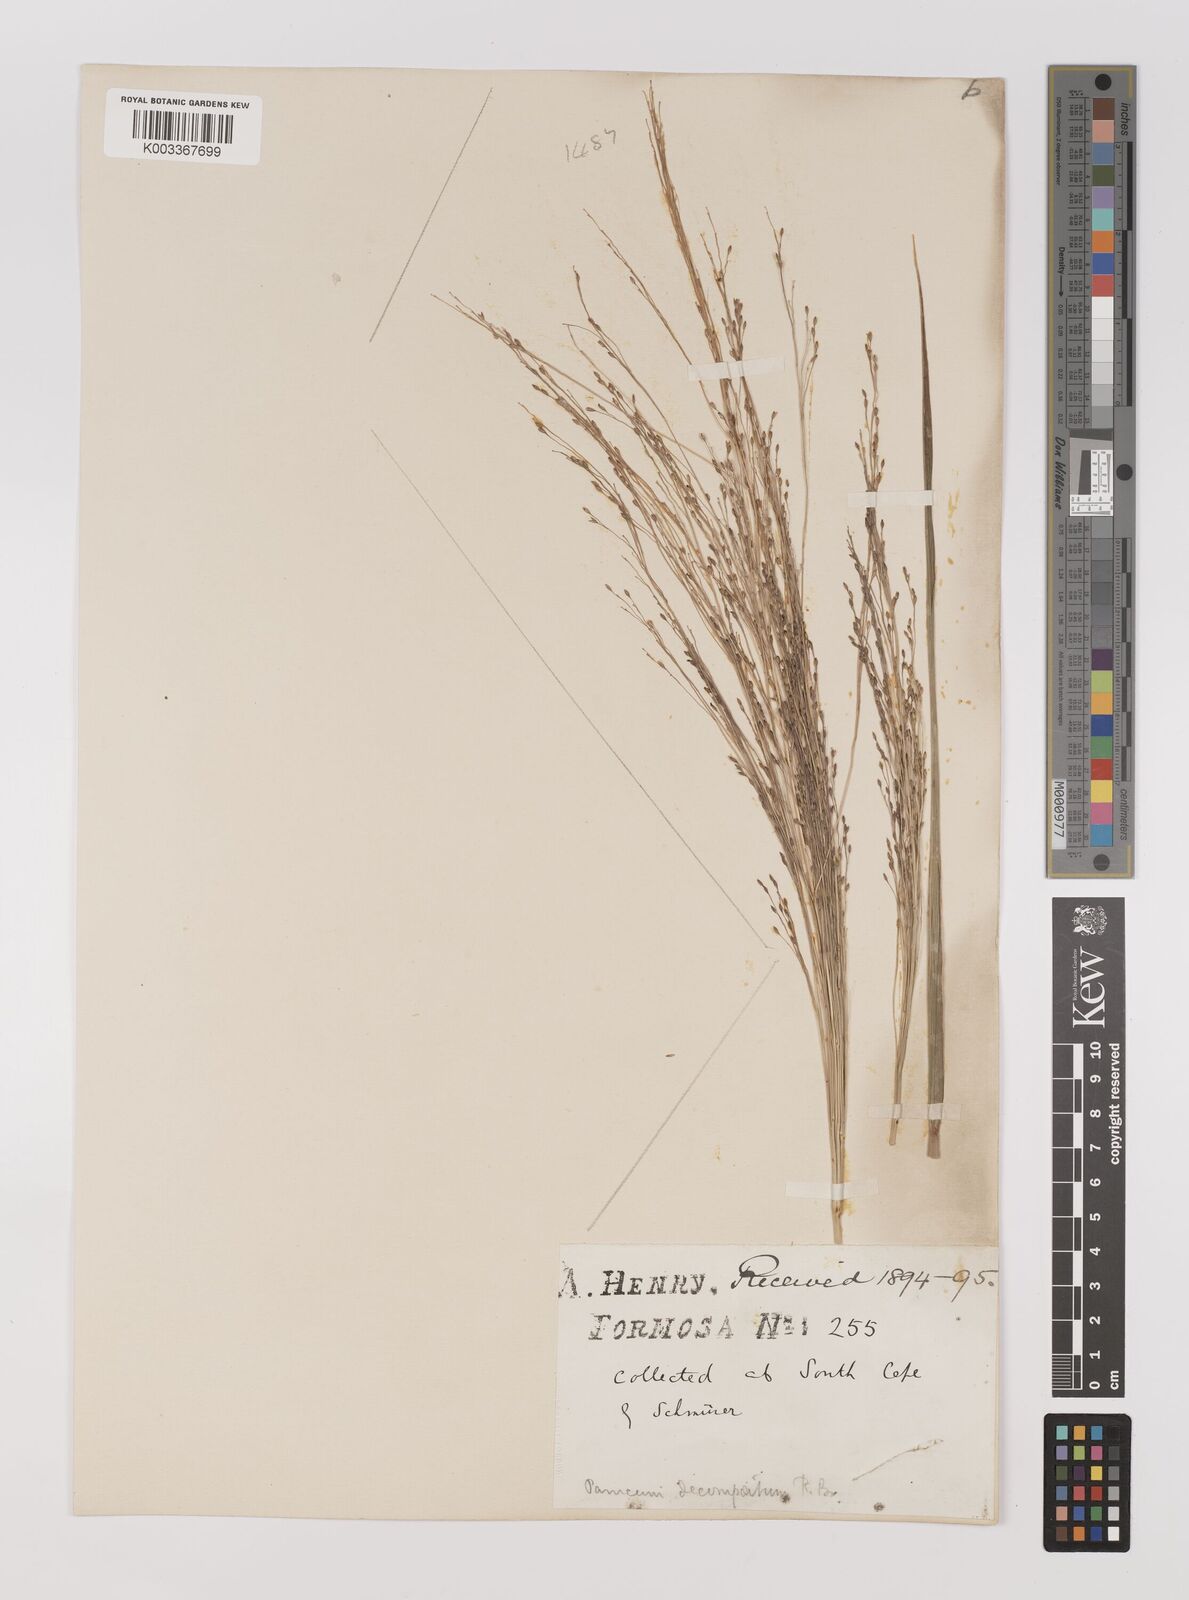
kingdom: Plantae
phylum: Tracheophyta
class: Liliopsida
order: Poales
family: Poaceae
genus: Panicum
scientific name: Panicum dichotomiflorum
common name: Autumn millet
